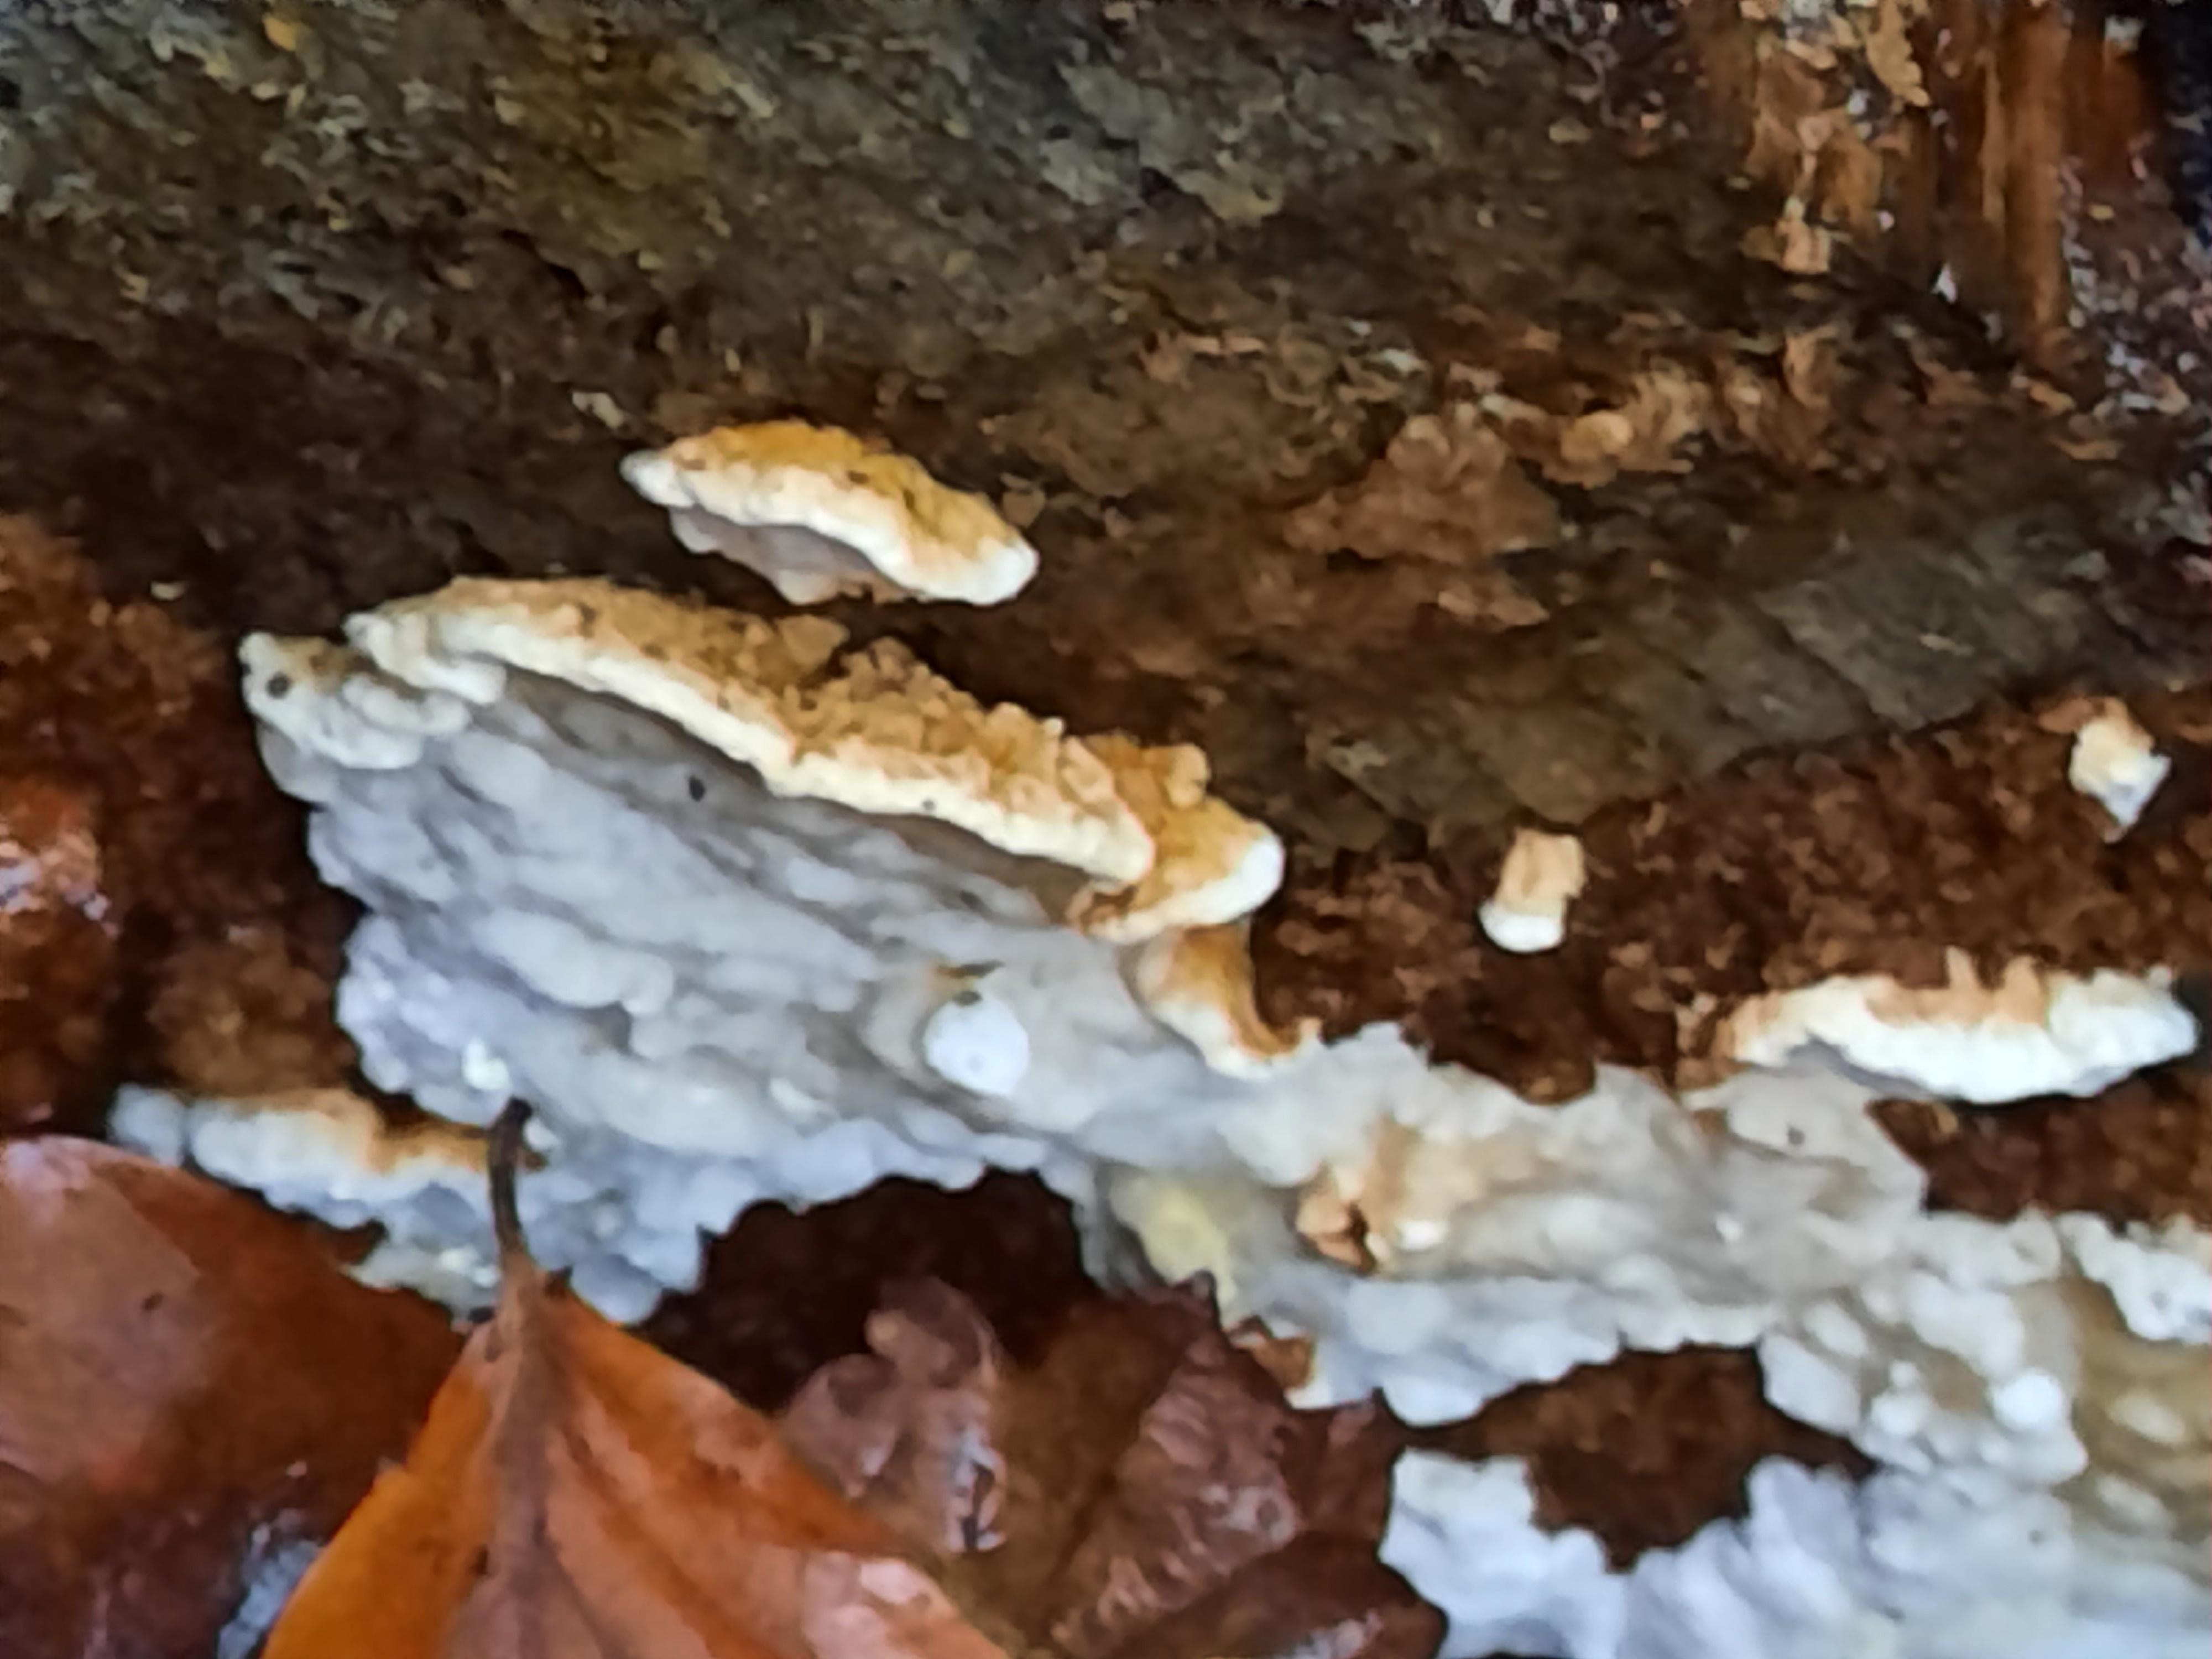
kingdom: Fungi
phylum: Basidiomycota
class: Agaricomycetes
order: Polyporales
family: Fomitopsidaceae
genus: Neoantrodia
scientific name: Neoantrodia serialis
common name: række-sejporesvamp
